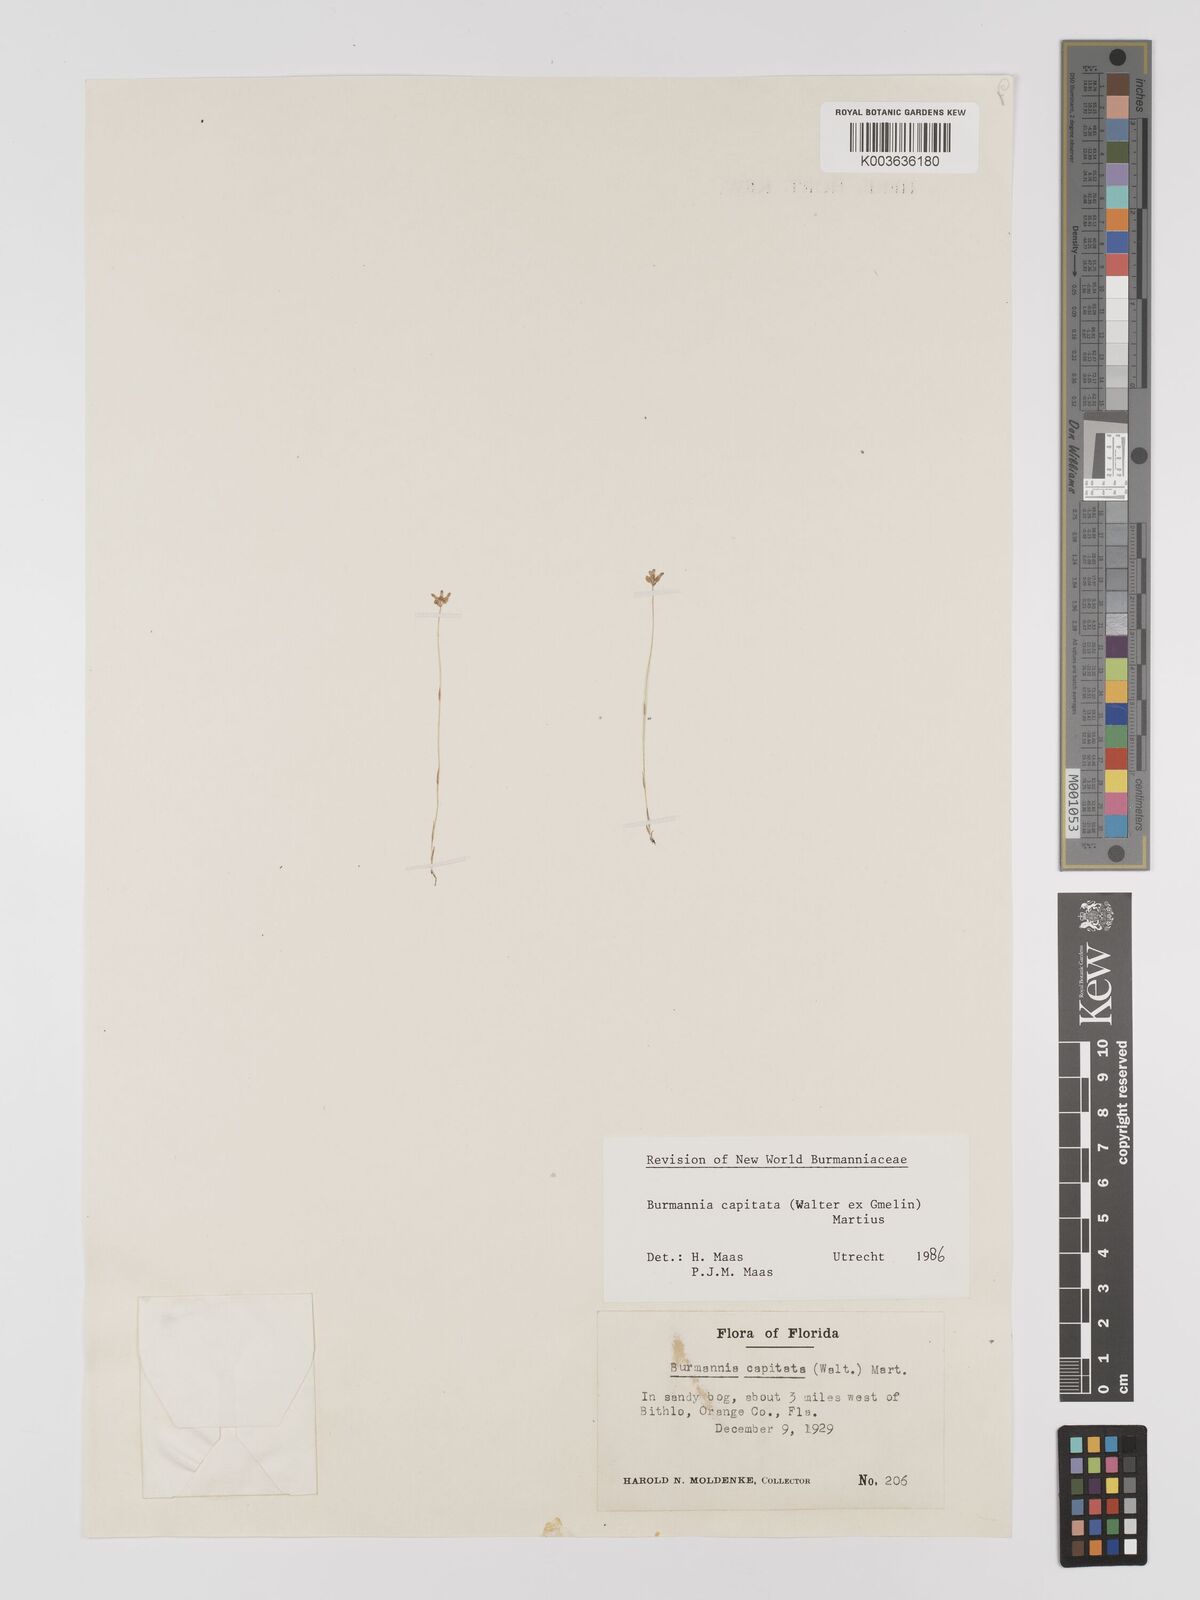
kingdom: Plantae
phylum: Tracheophyta
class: Liliopsida
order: Dioscoreales
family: Burmanniaceae
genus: Burmannia
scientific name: Burmannia capitata
